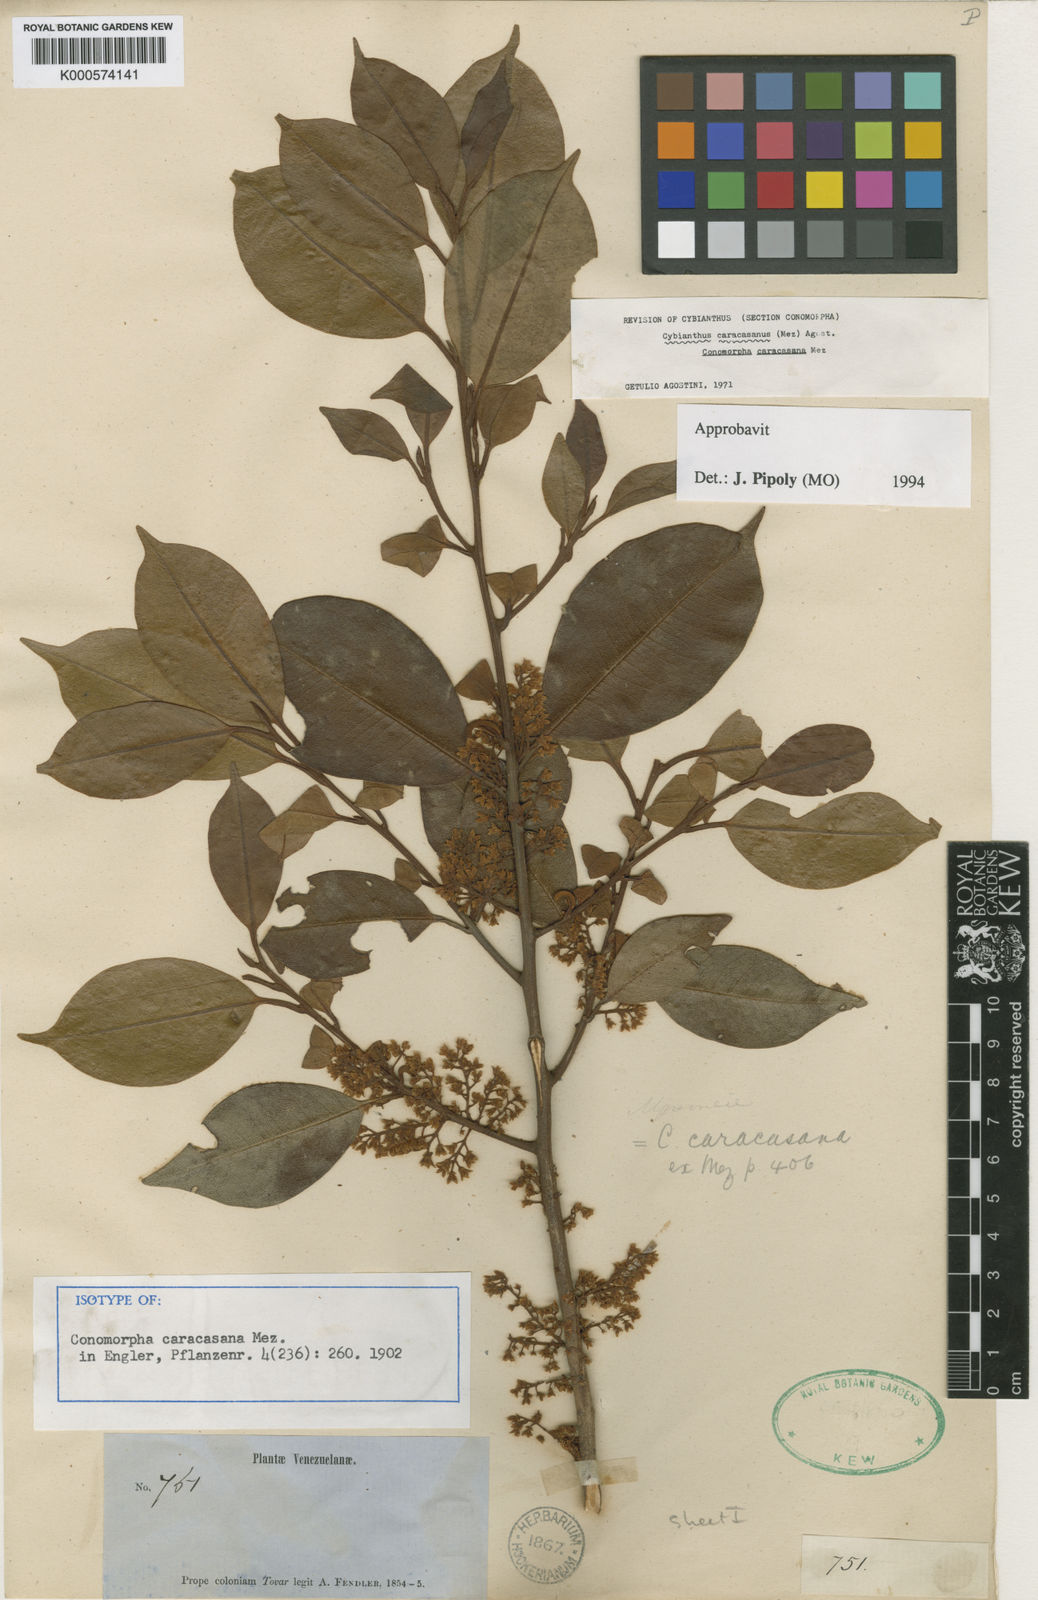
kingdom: Plantae
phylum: Tracheophyta
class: Magnoliopsida
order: Ericales
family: Primulaceae
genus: Cybianthus
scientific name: Cybianthus caracasanus
